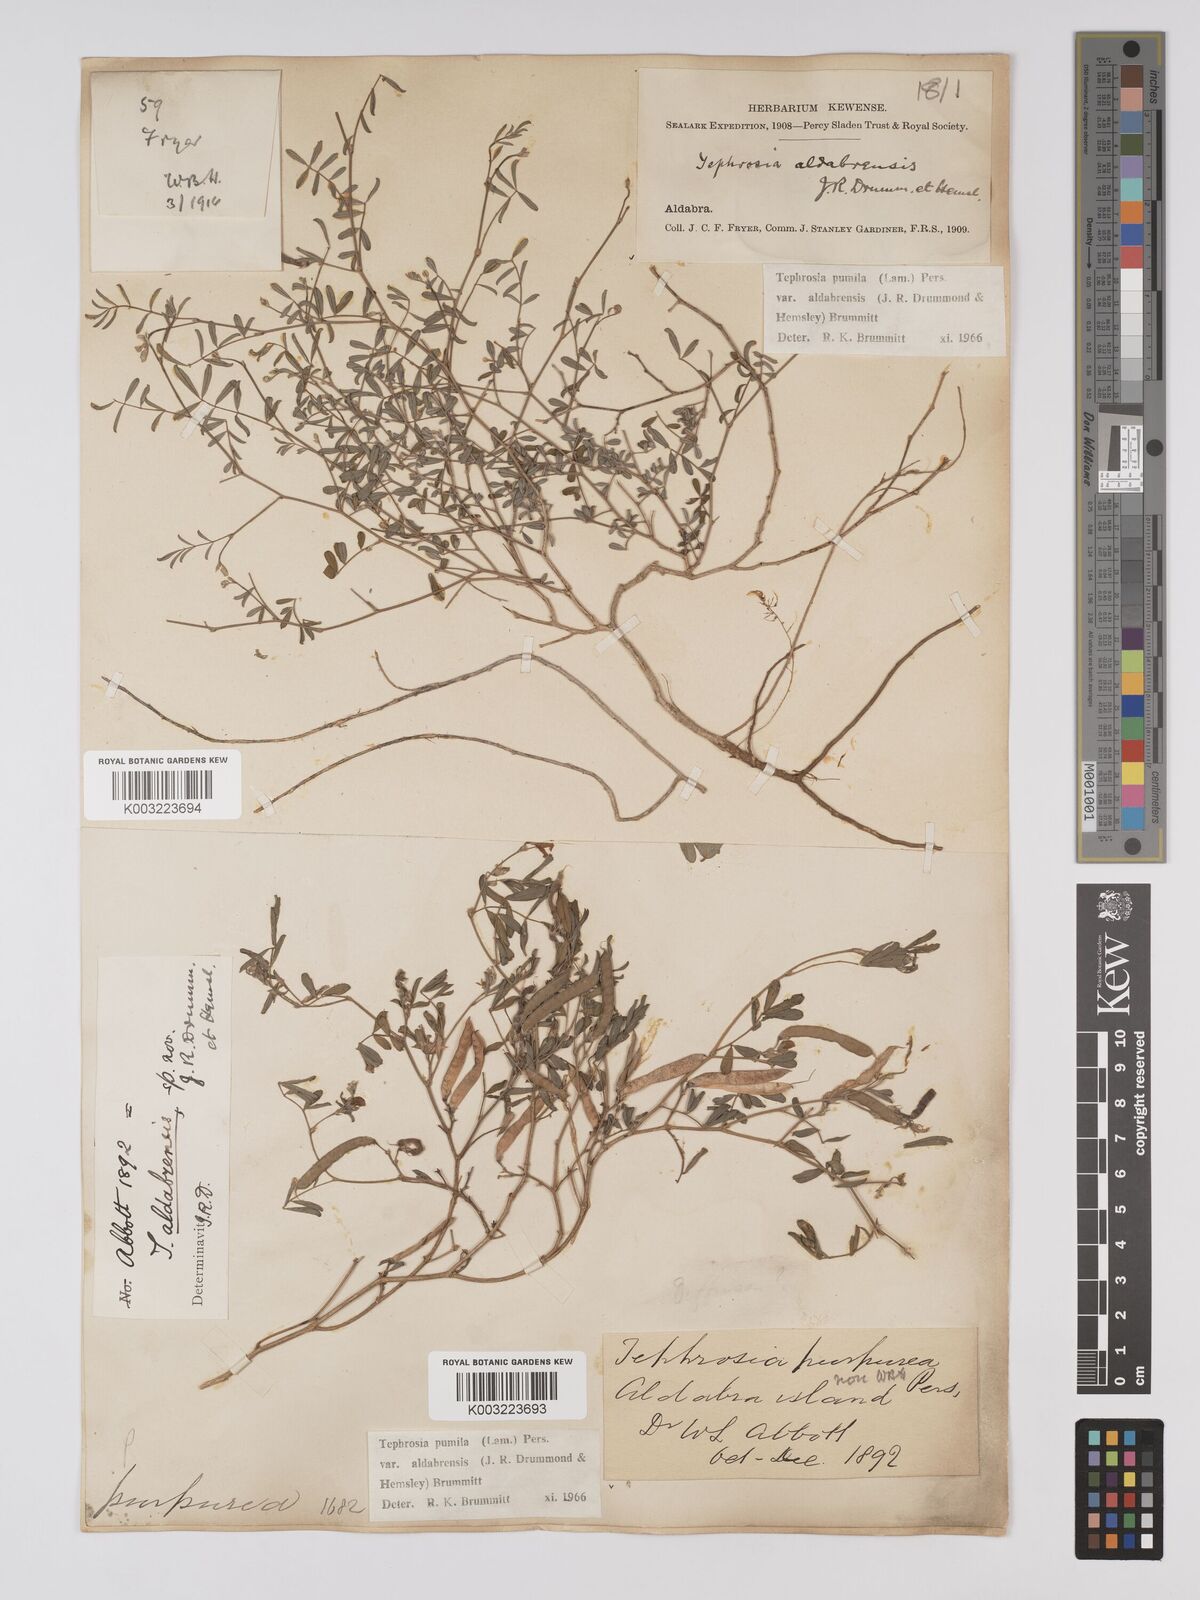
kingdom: Plantae
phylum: Tracheophyta
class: Magnoliopsida
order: Fabales
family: Fabaceae
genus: Tephrosia
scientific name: Tephrosia pumila
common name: Indigo sauvage
